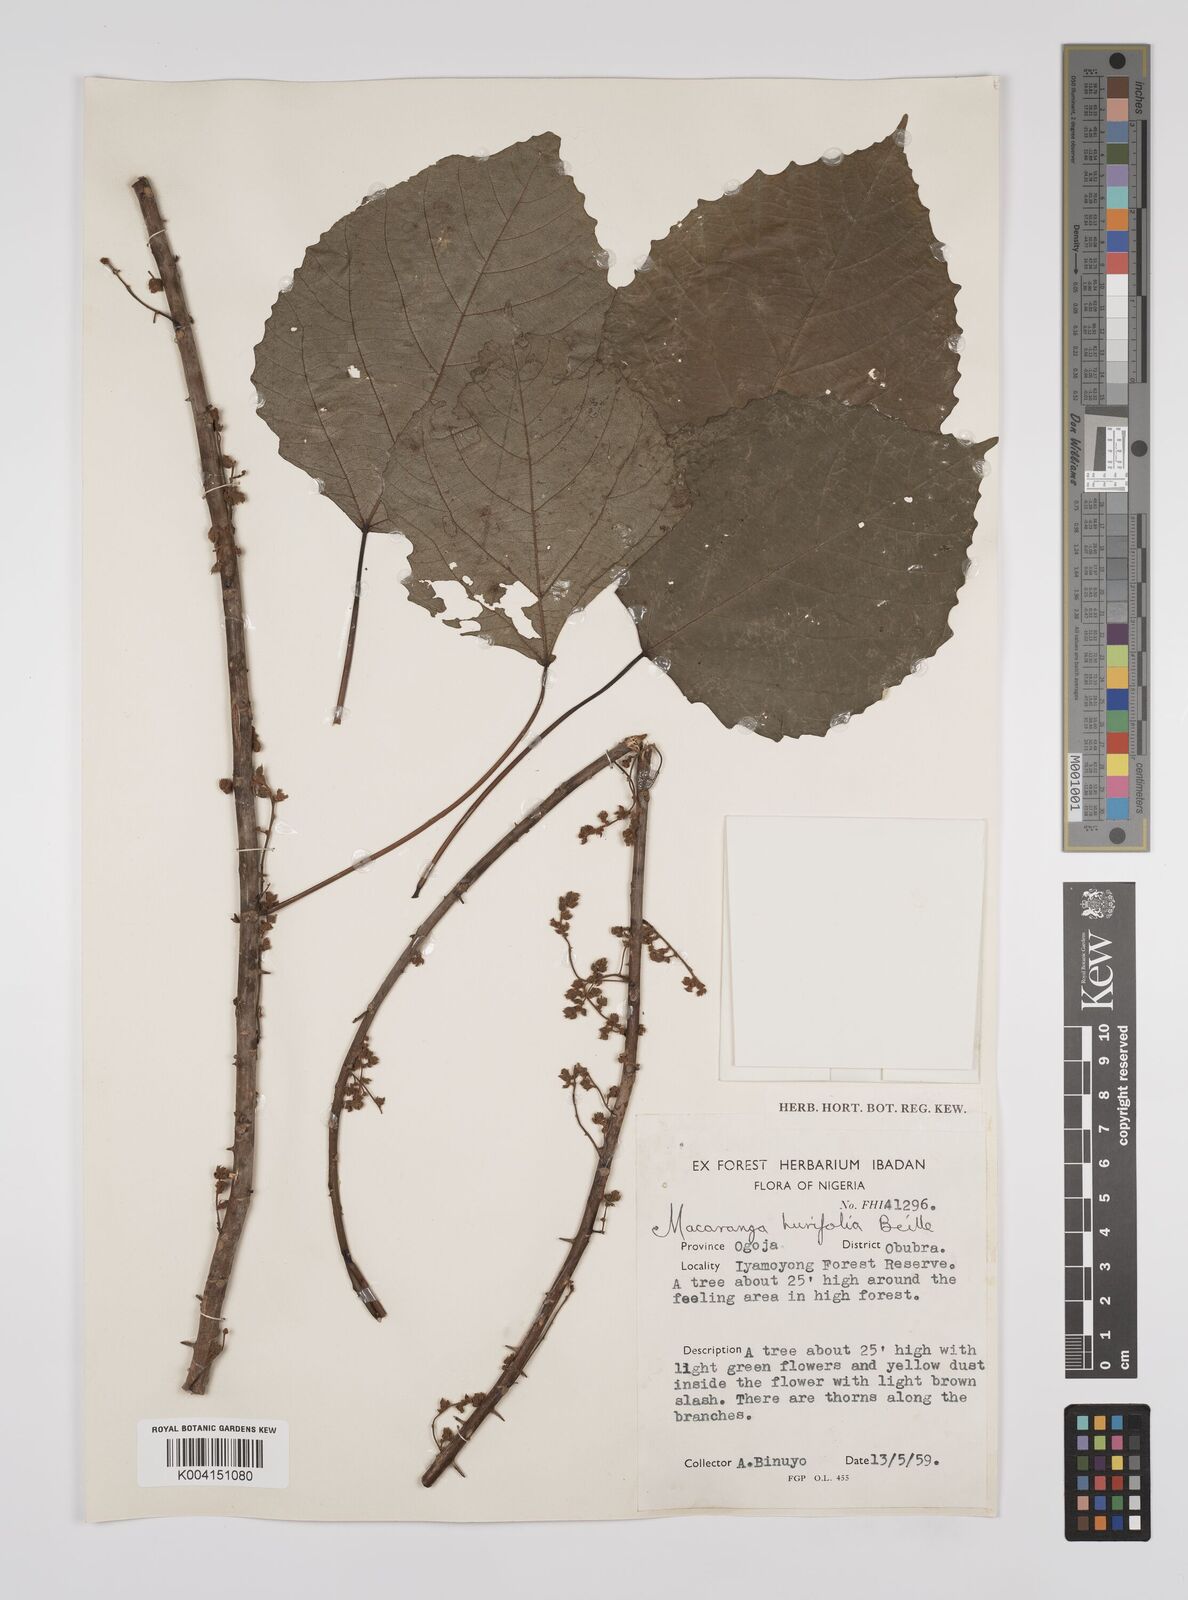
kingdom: Plantae
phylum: Tracheophyta
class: Magnoliopsida
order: Malpighiales
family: Euphorbiaceae
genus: Macaranga
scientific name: Macaranga hurifolia
